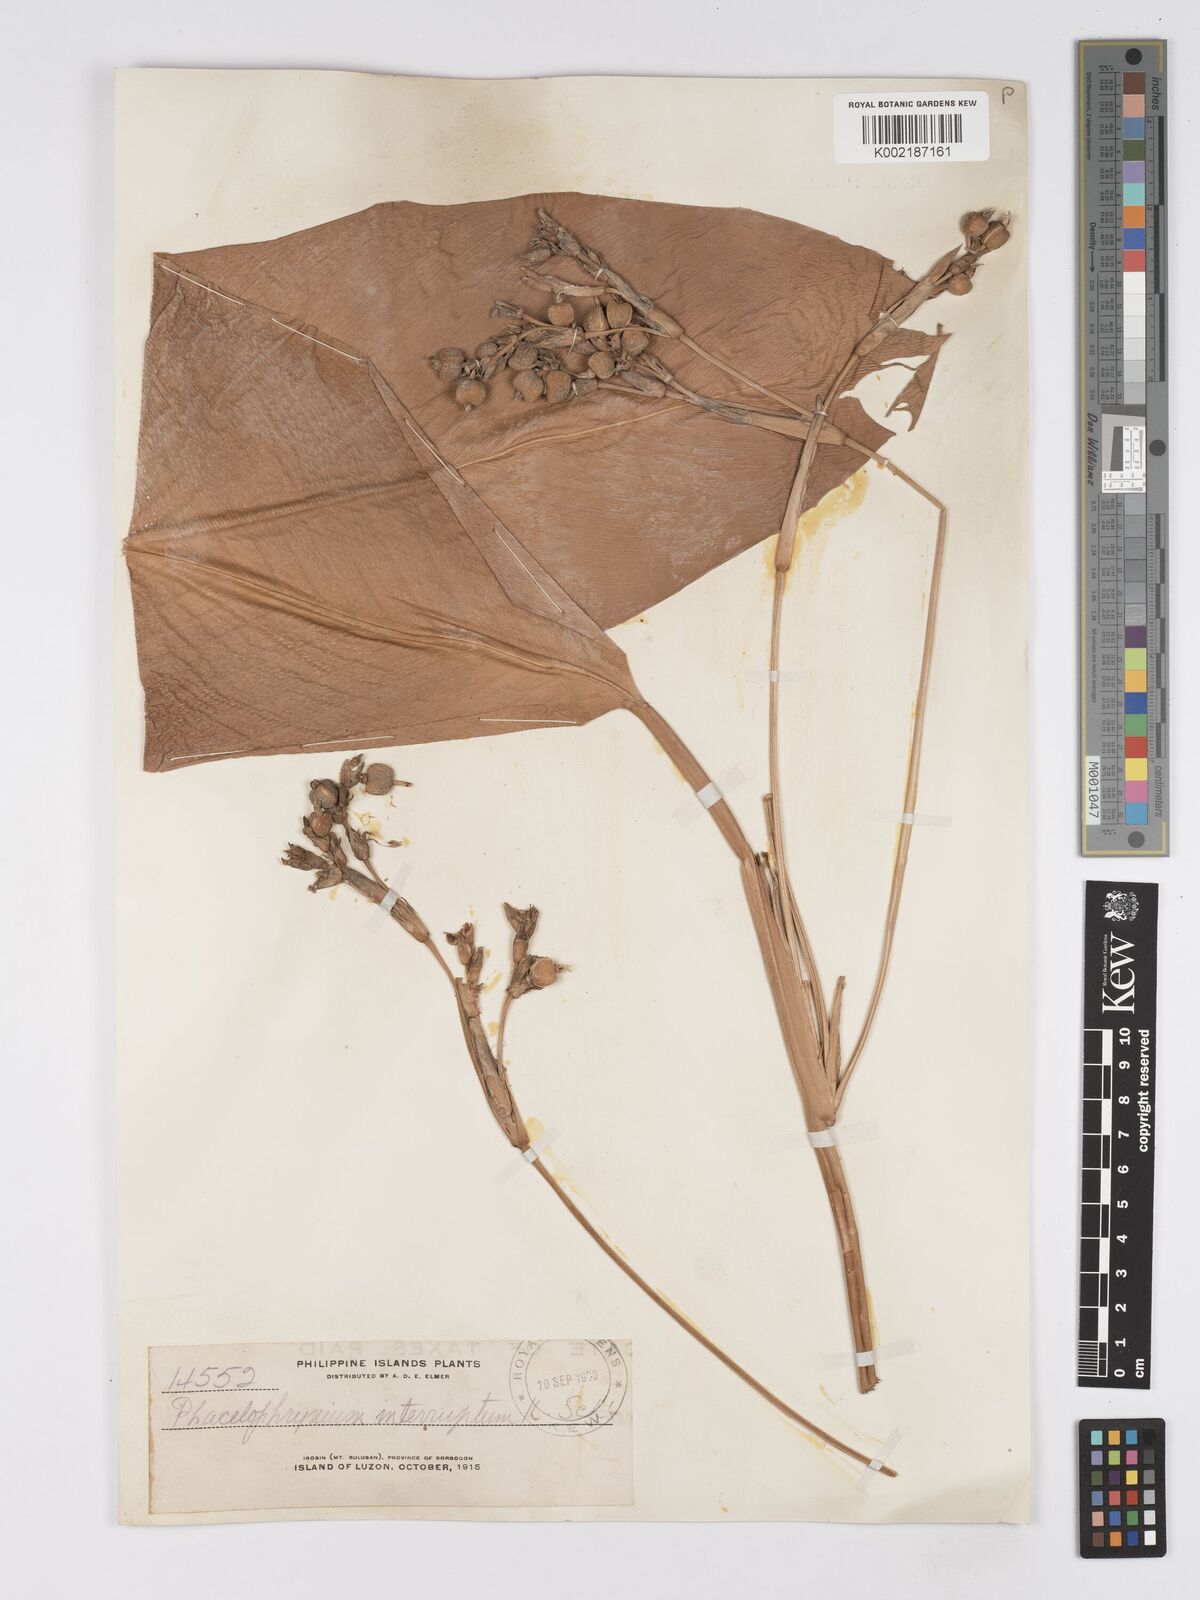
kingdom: Plantae
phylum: Tracheophyta
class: Liliopsida
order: Zingiberales
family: Marantaceae
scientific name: Marantaceae
